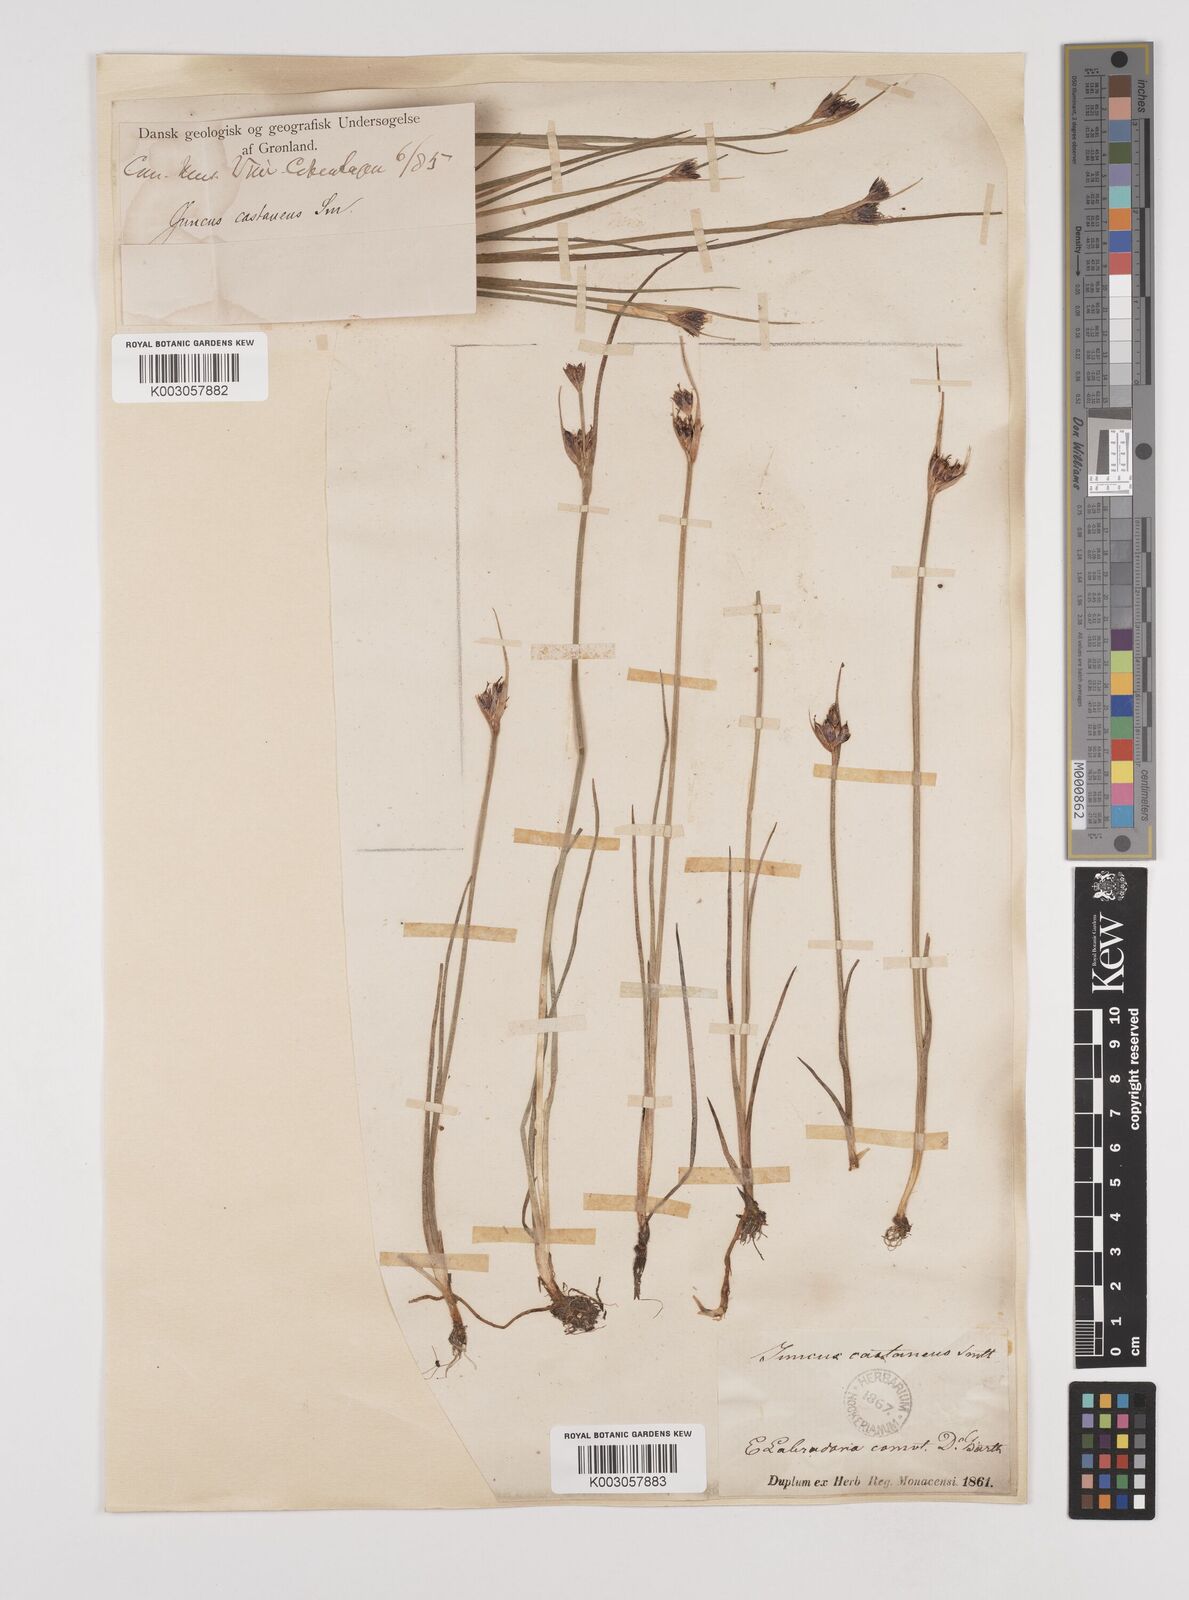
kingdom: Plantae
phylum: Tracheophyta
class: Liliopsida
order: Poales
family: Juncaceae
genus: Juncus
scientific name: Juncus castaneus
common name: Chestnut rush
